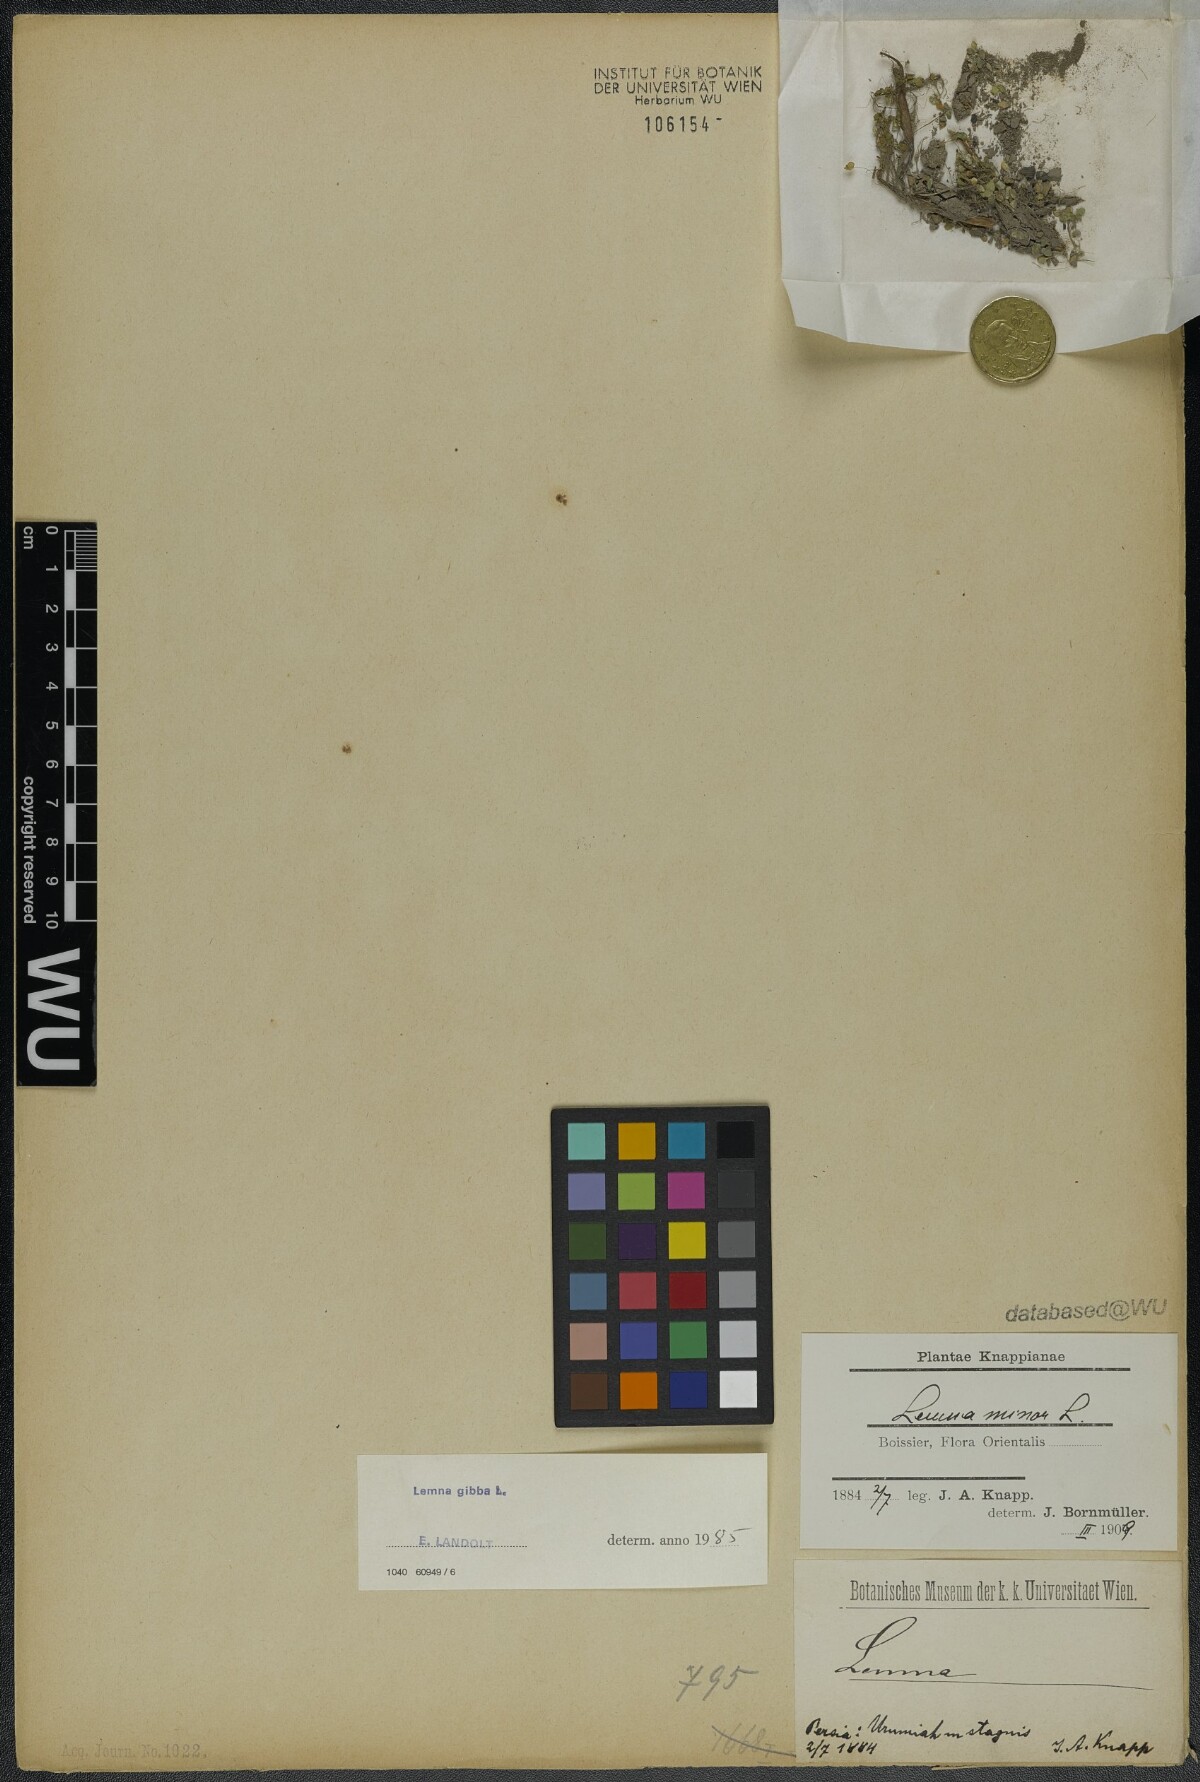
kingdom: Plantae
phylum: Tracheophyta
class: Liliopsida
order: Alismatales
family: Araceae
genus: Lemna
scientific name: Lemna gibba
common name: Fat duckweed
